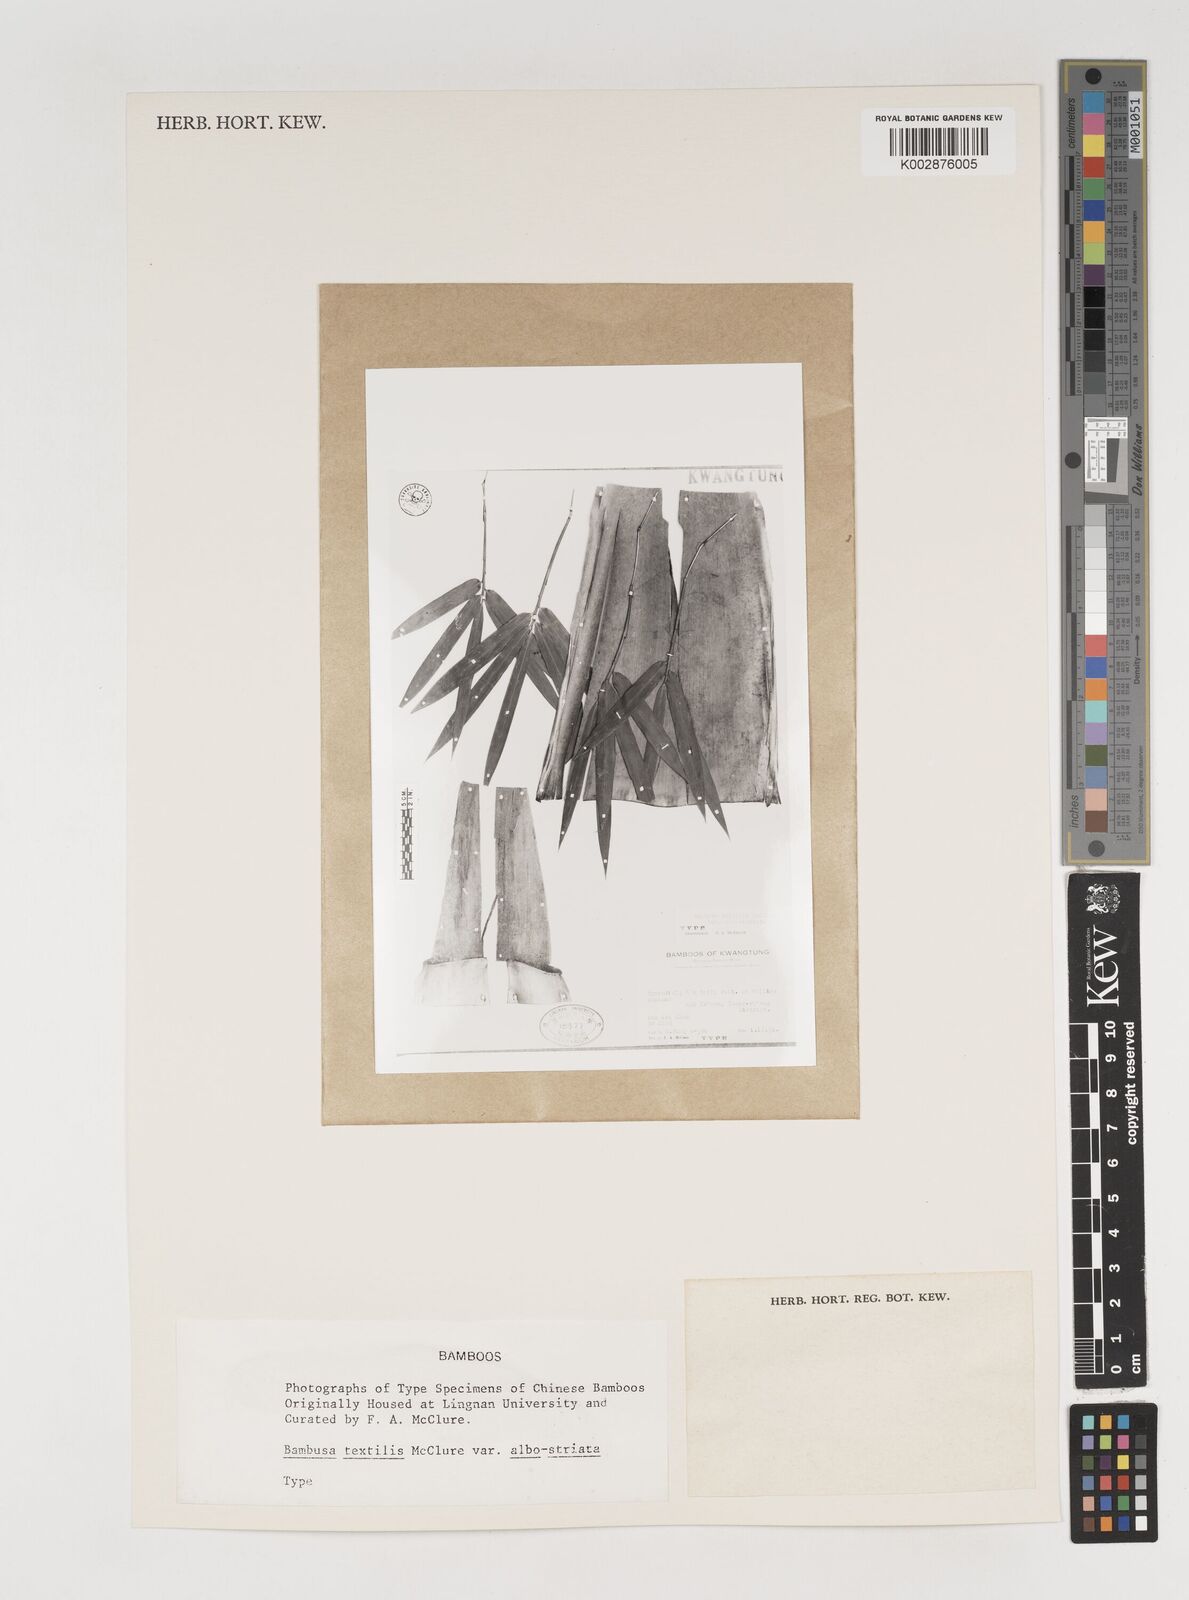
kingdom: Plantae
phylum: Tracheophyta
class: Liliopsida
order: Poales
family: Poaceae
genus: Bambusa
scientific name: Bambusa albolineata
